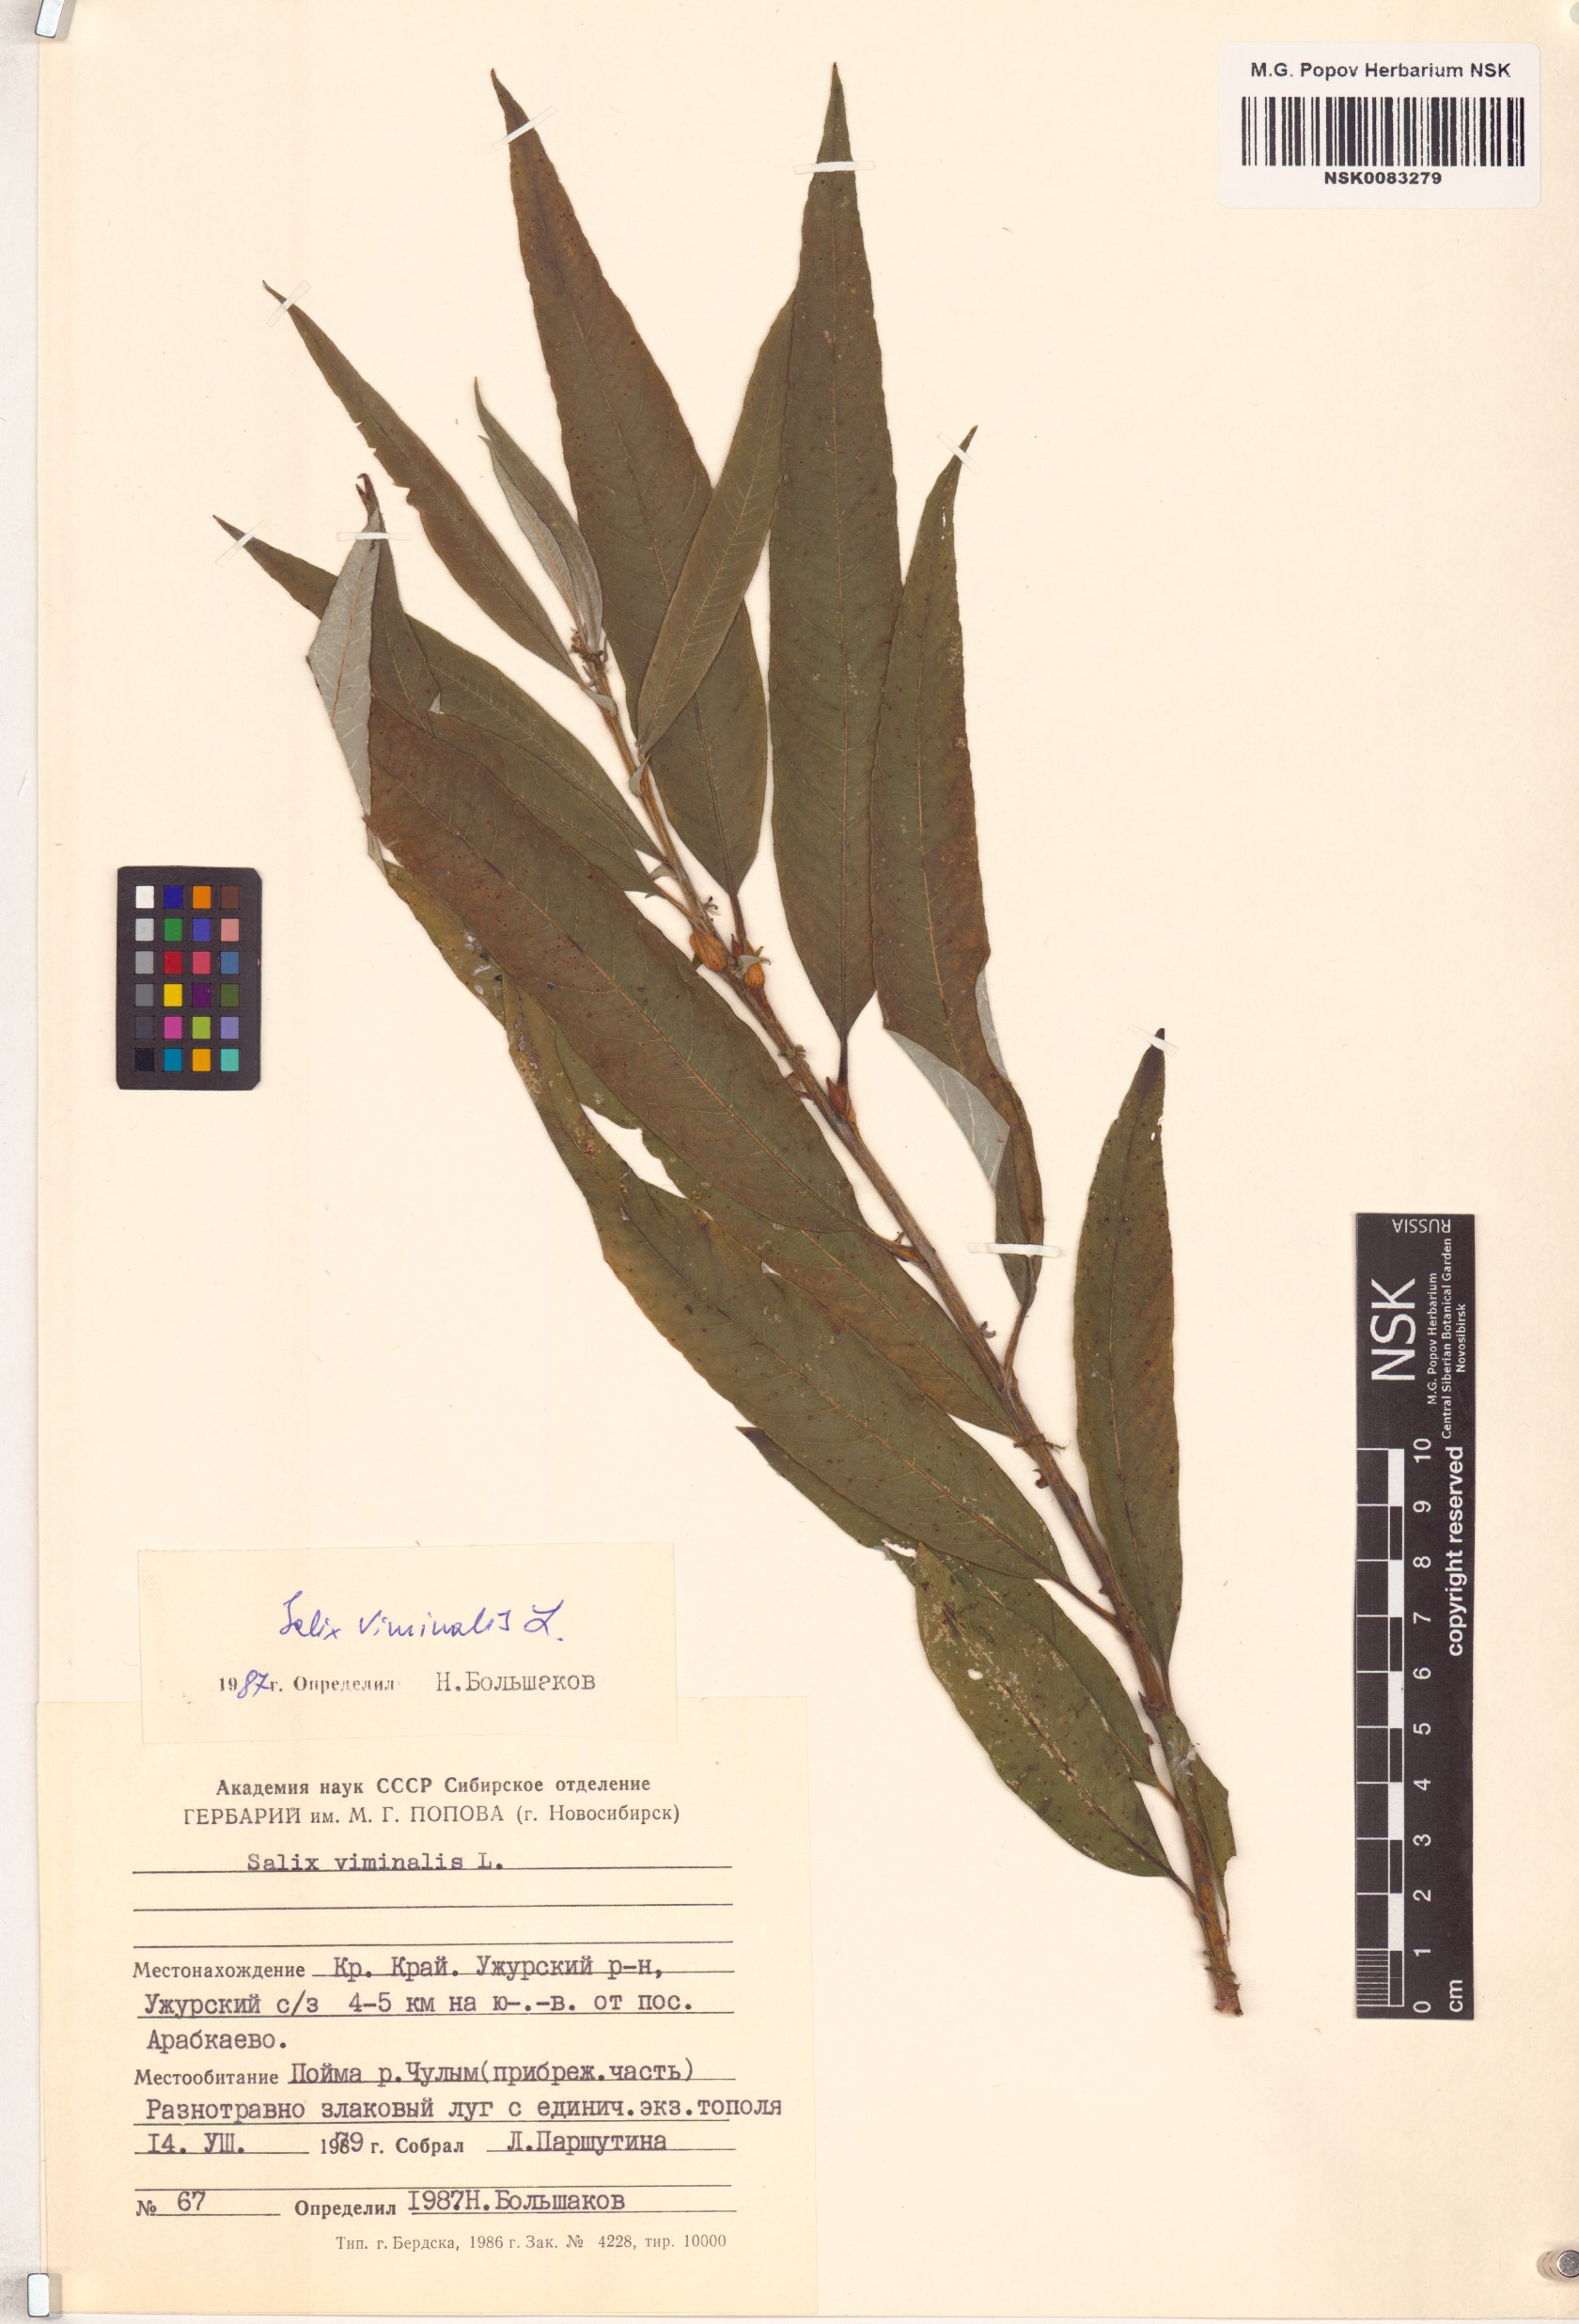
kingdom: Plantae
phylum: Tracheophyta
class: Magnoliopsida
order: Malpighiales
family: Salicaceae
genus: Salix
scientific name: Salix viminalis
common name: Osier
